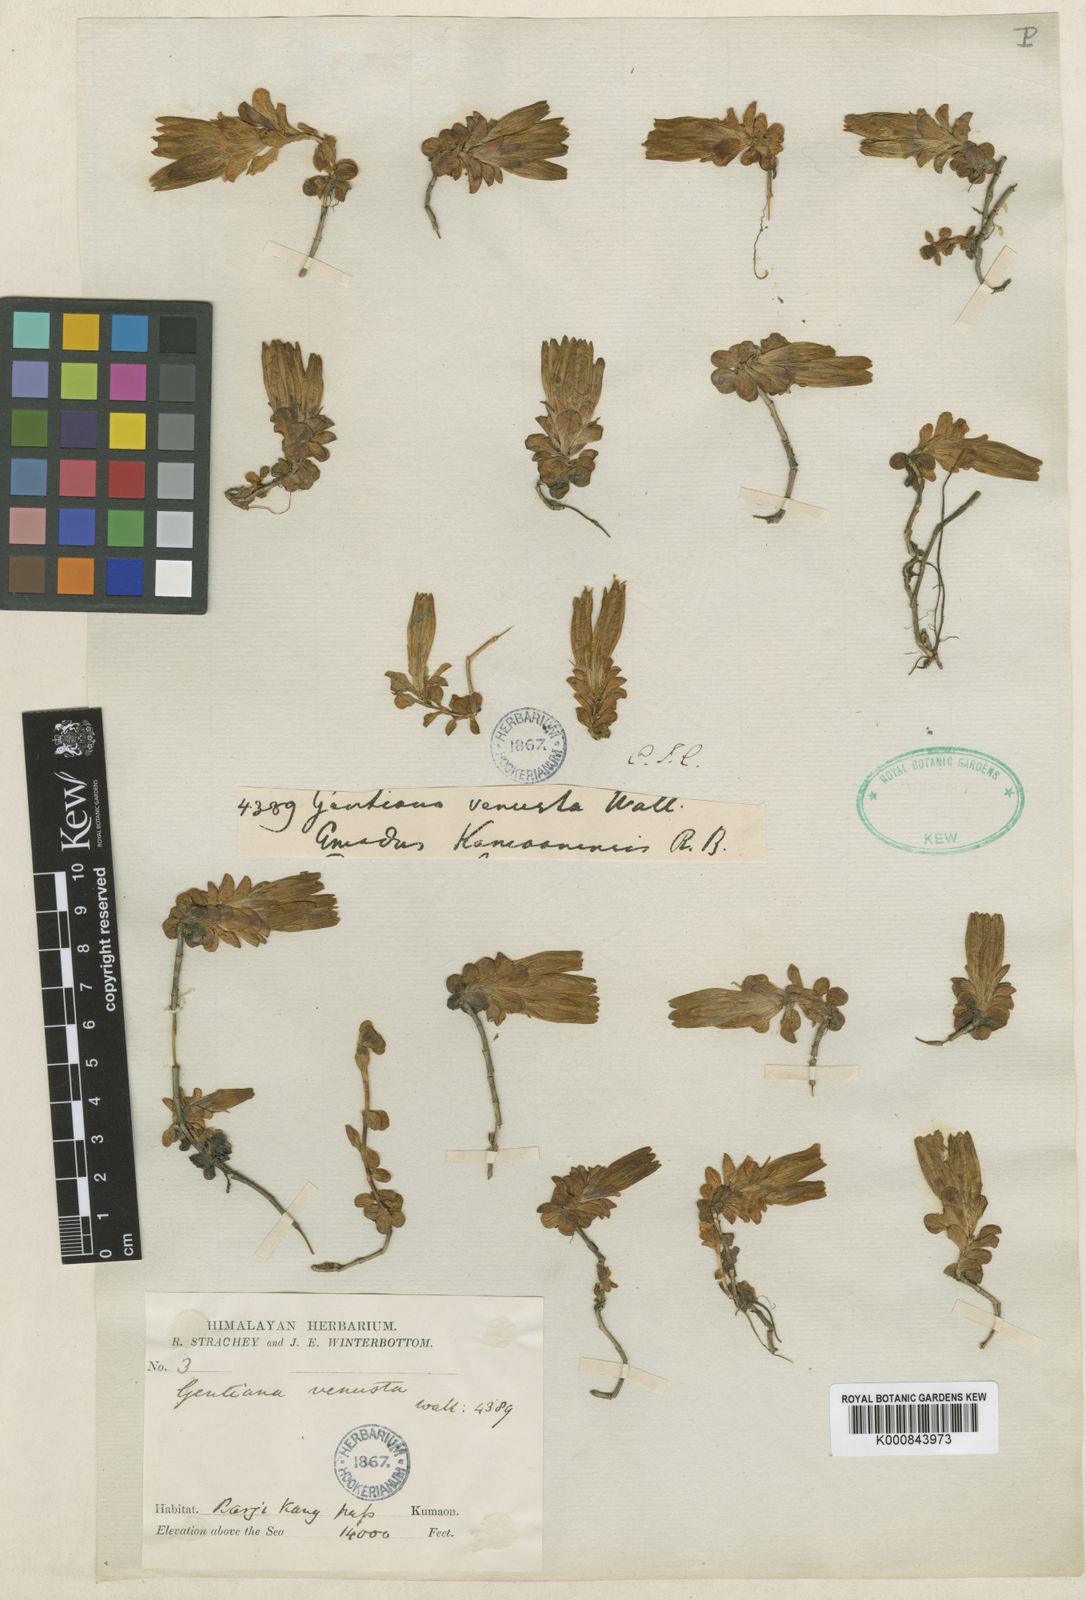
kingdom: Plantae
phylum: Tracheophyta
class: Magnoliopsida
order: Gentianales
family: Gentianaceae
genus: Gentiana
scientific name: Gentiana venusta
